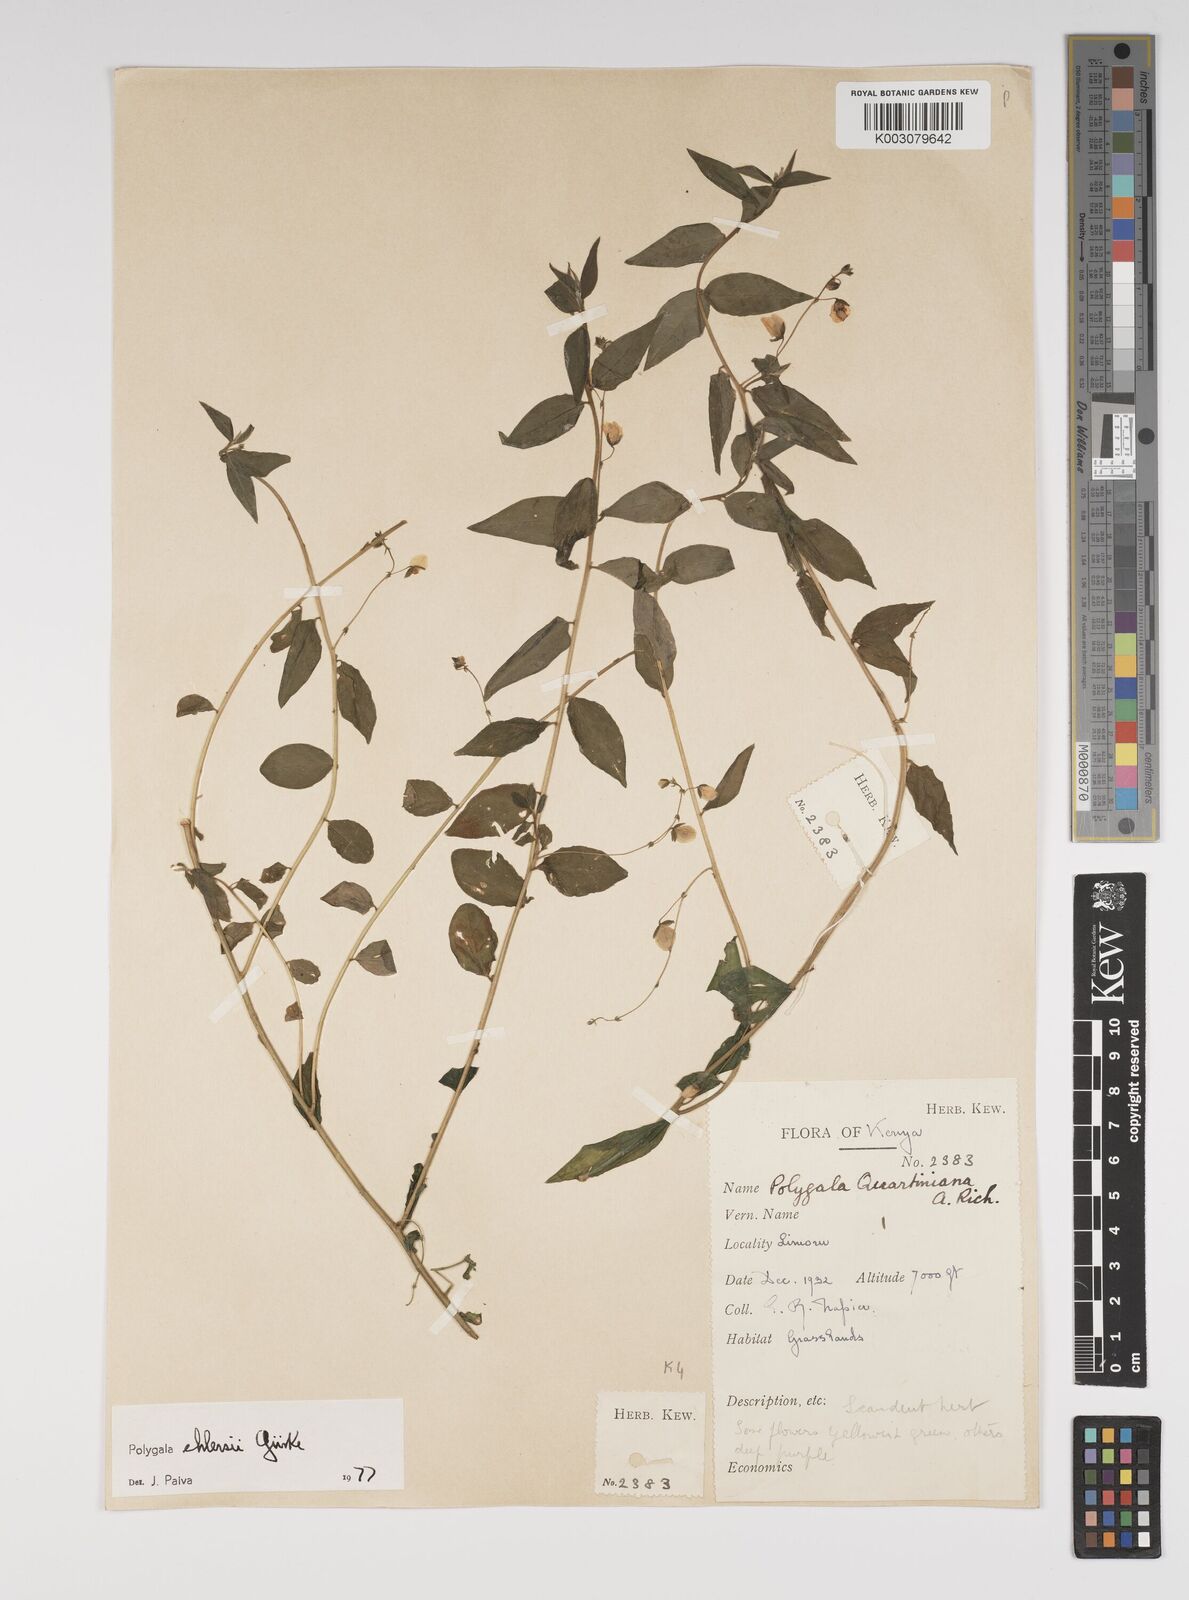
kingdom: Plantae
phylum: Tracheophyta
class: Magnoliopsida
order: Fabales
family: Polygalaceae
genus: Polygala
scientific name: Polygala ehlersii
